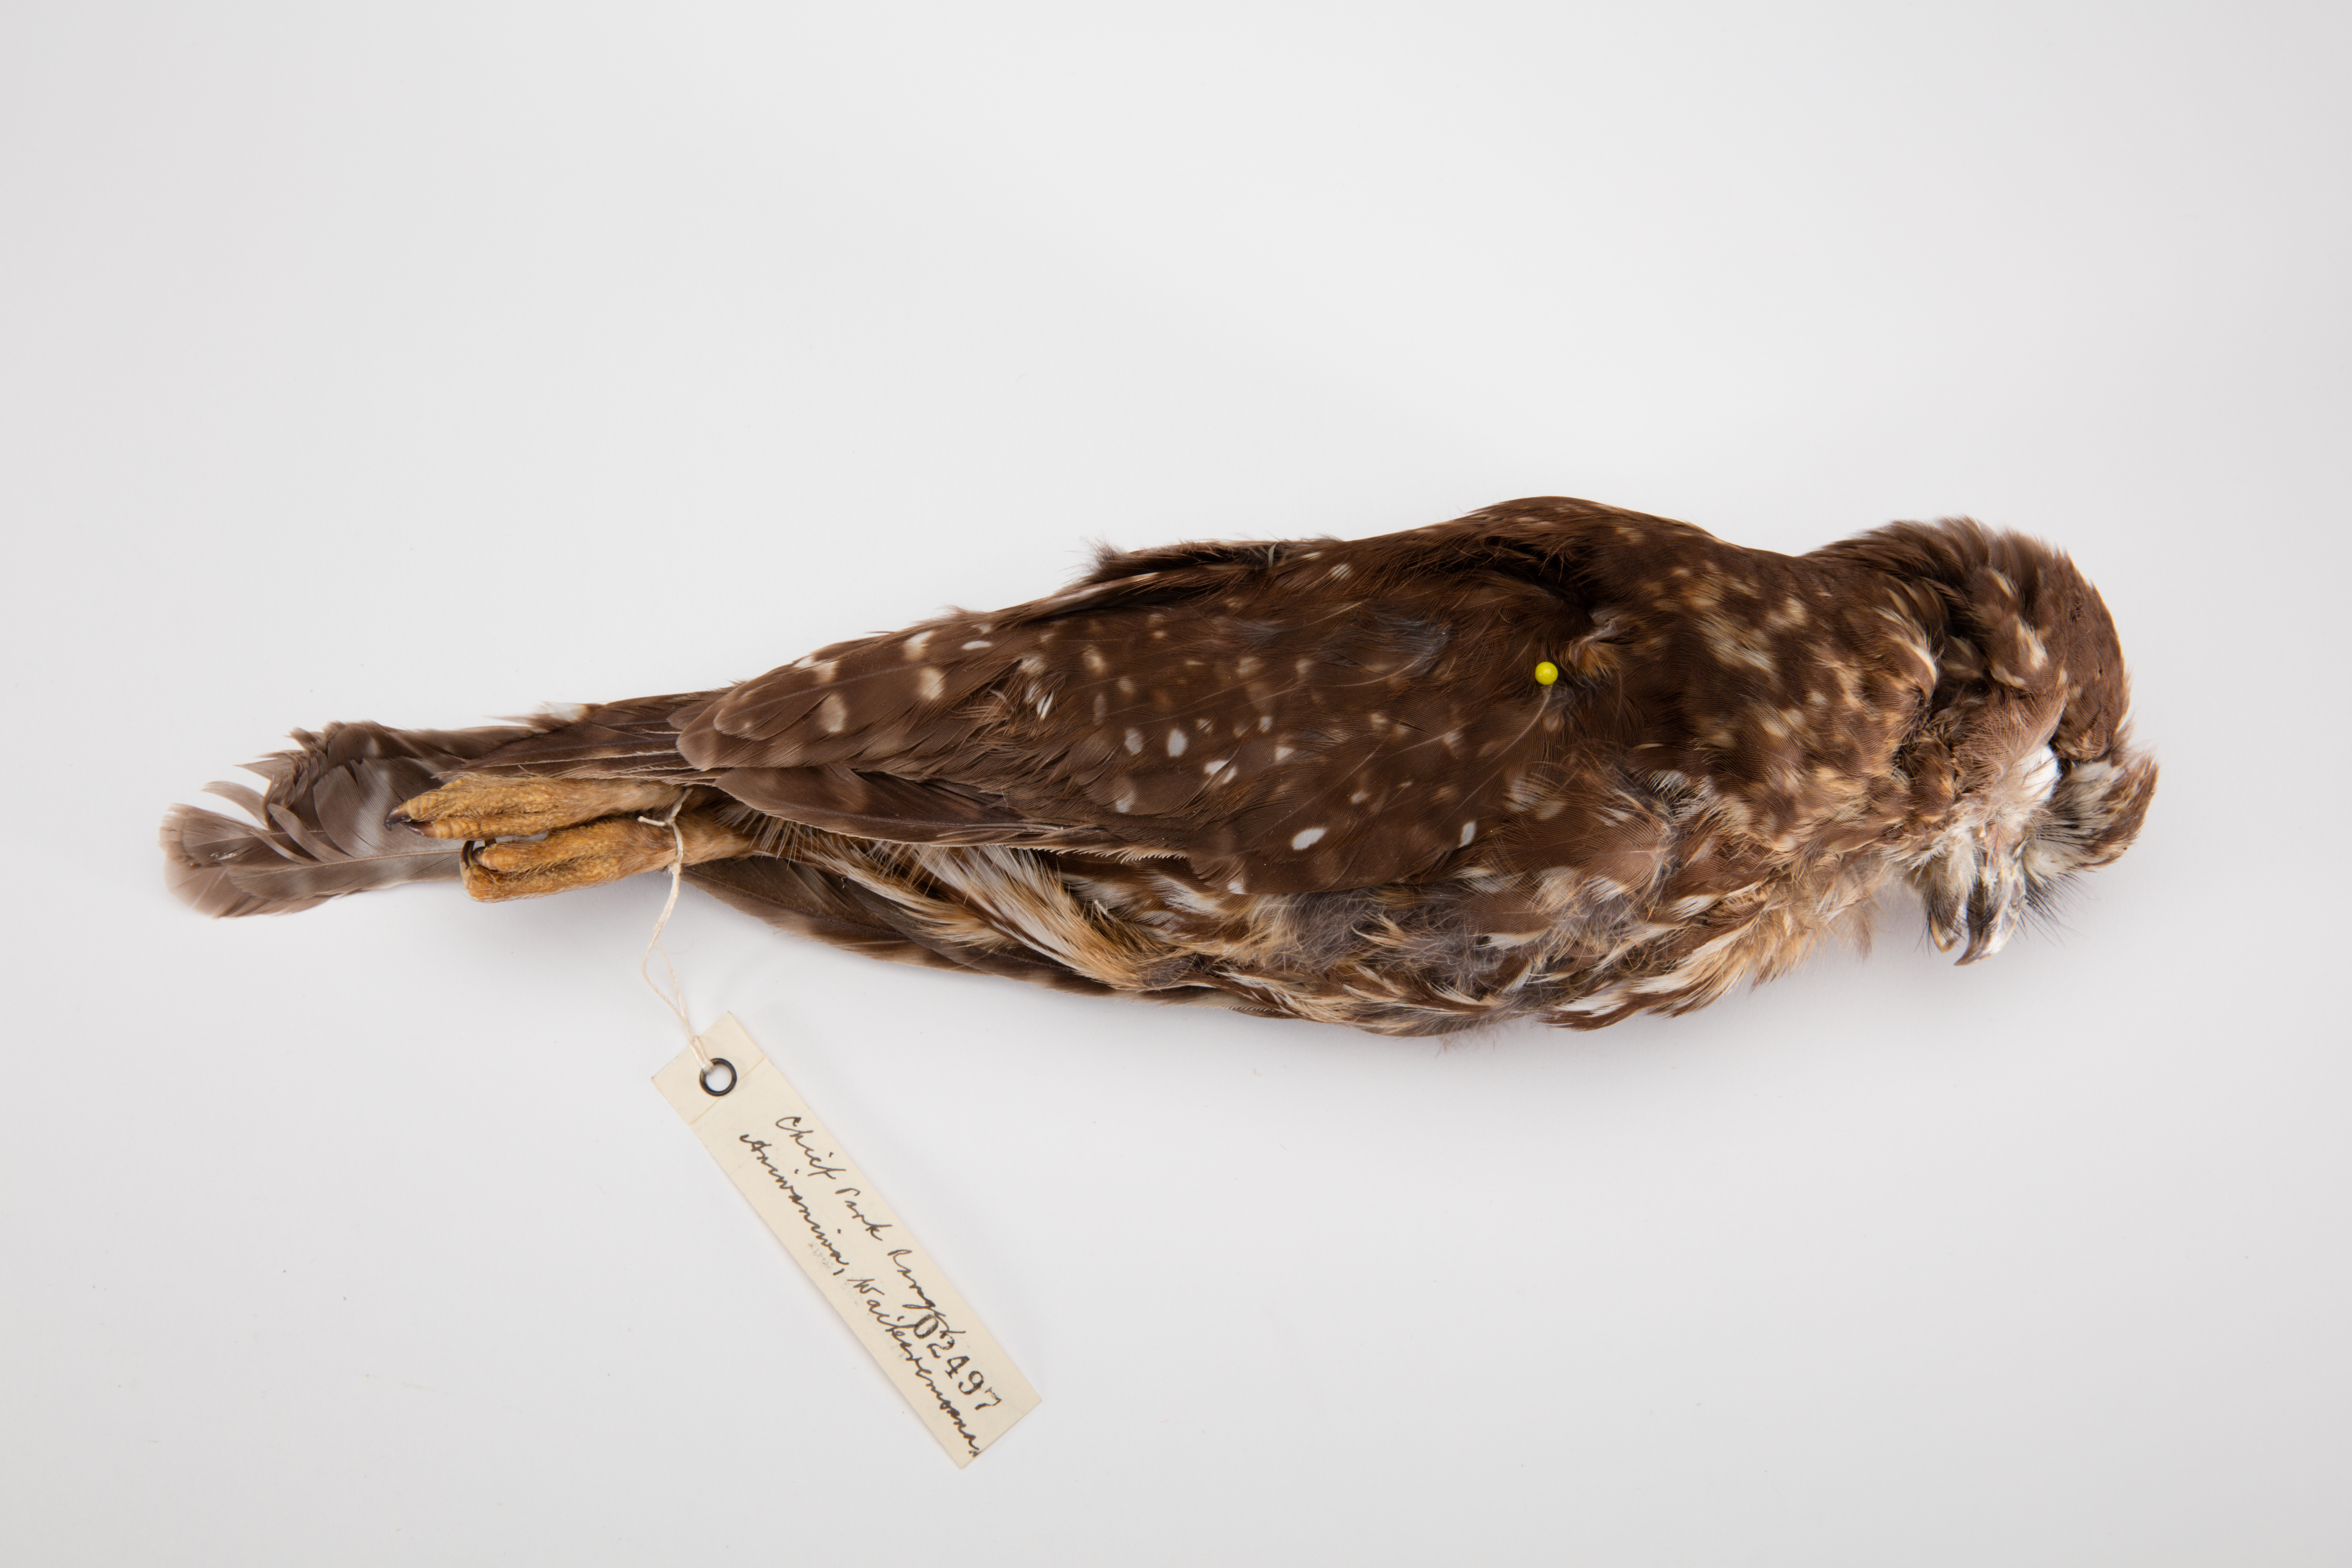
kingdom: Animalia
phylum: Chordata
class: Aves
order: Strigiformes
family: Strigidae
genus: Ninox
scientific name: Ninox novaeseelandiae
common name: Morepork
